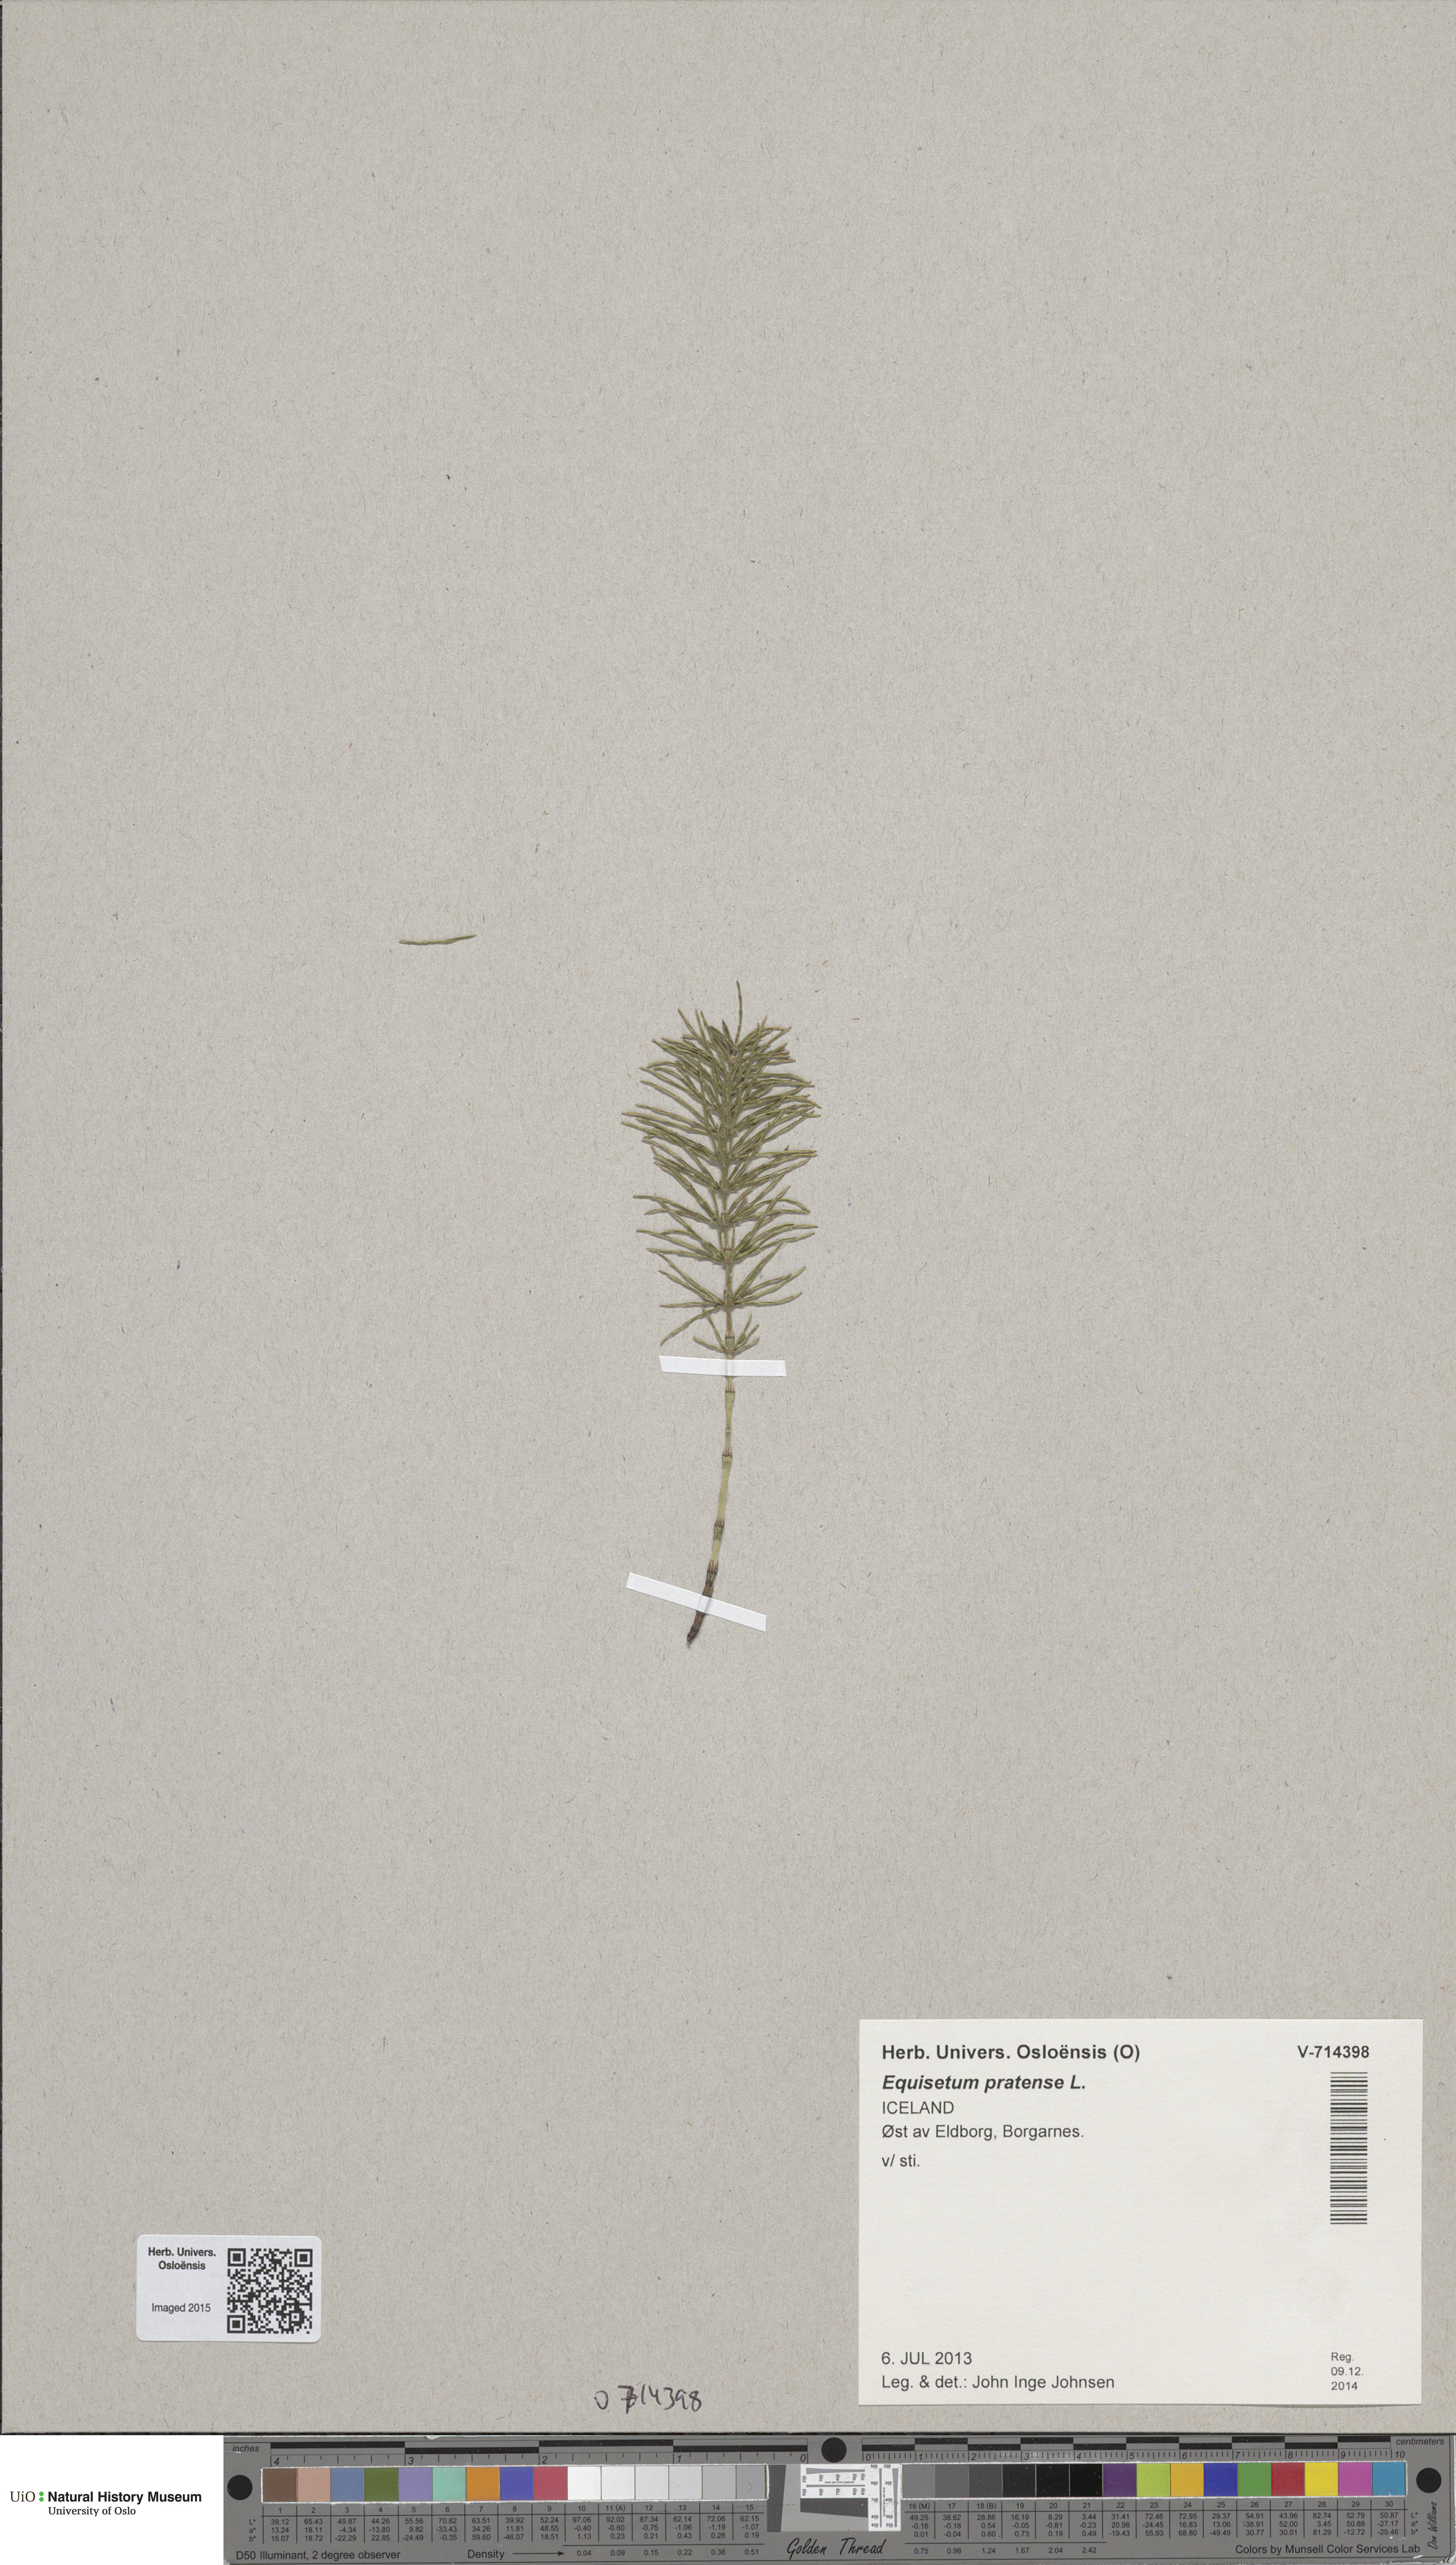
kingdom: Plantae
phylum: Tracheophyta
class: Polypodiopsida
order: Equisetales
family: Equisetaceae
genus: Equisetum
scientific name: Equisetum pratense
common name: Meadow horsetail
